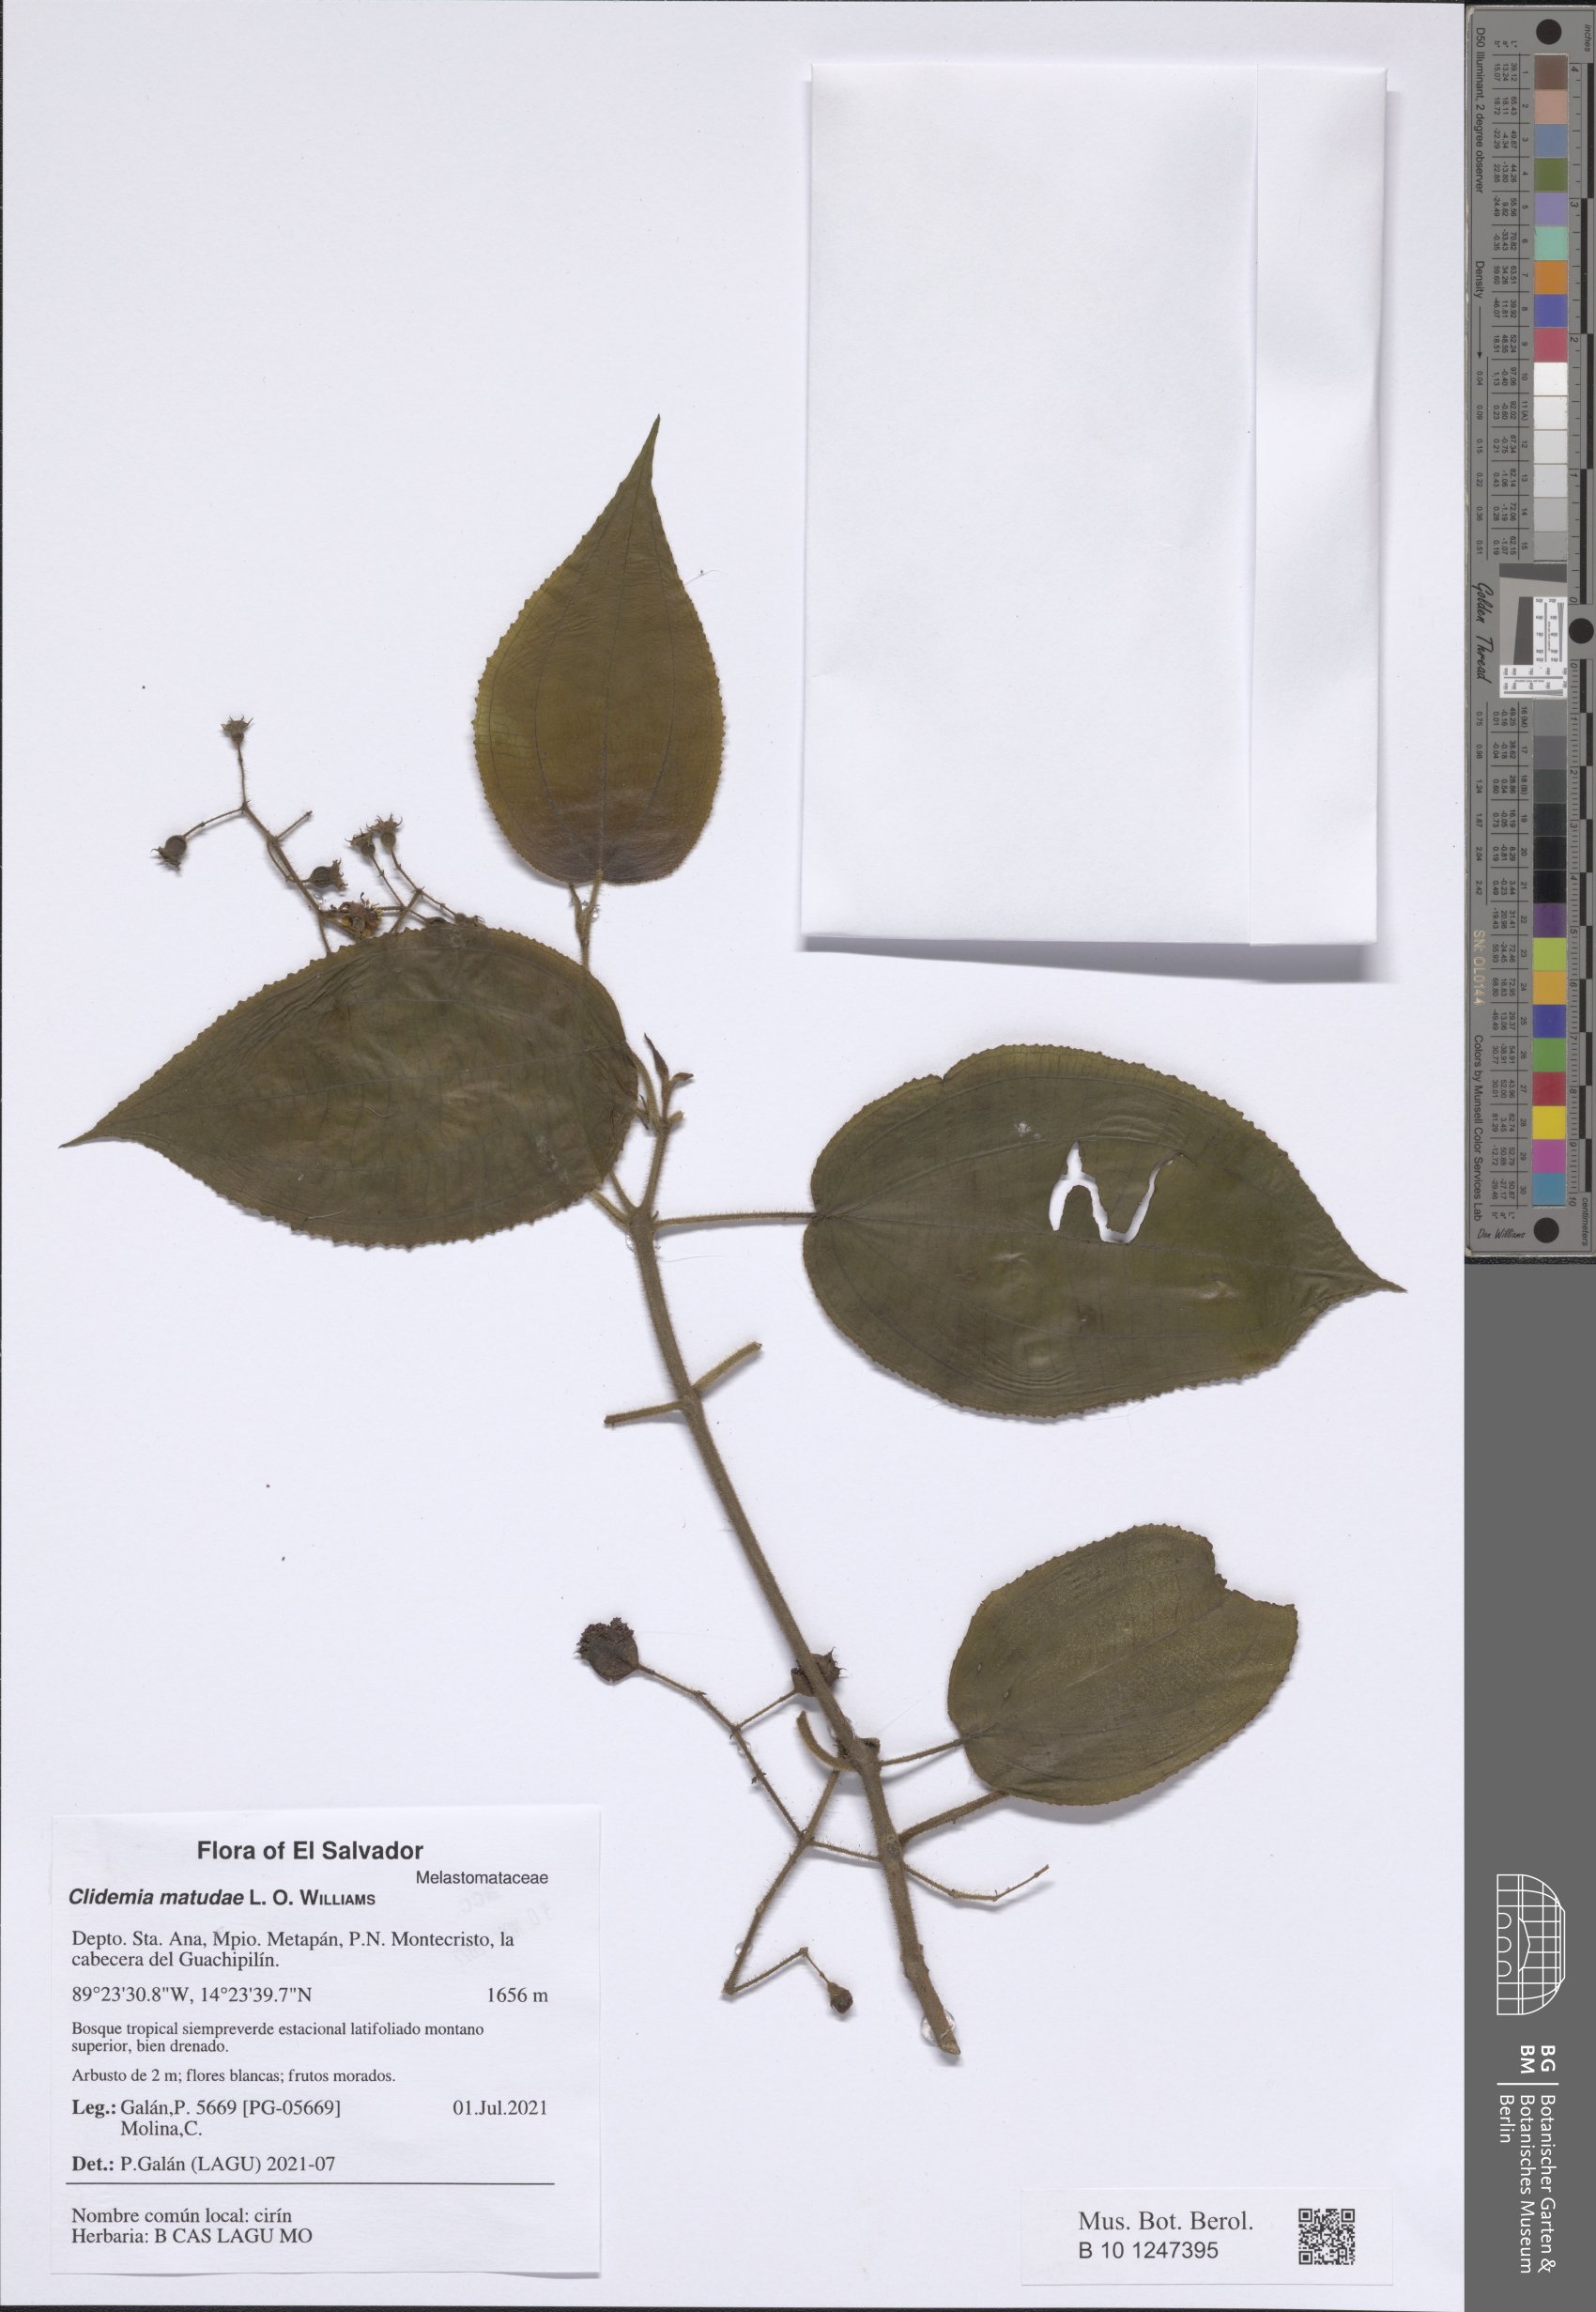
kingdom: Plantae
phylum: Tracheophyta
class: Magnoliopsida
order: Myrtales
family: Melastomataceae
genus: Miconia
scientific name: Miconia matudae
